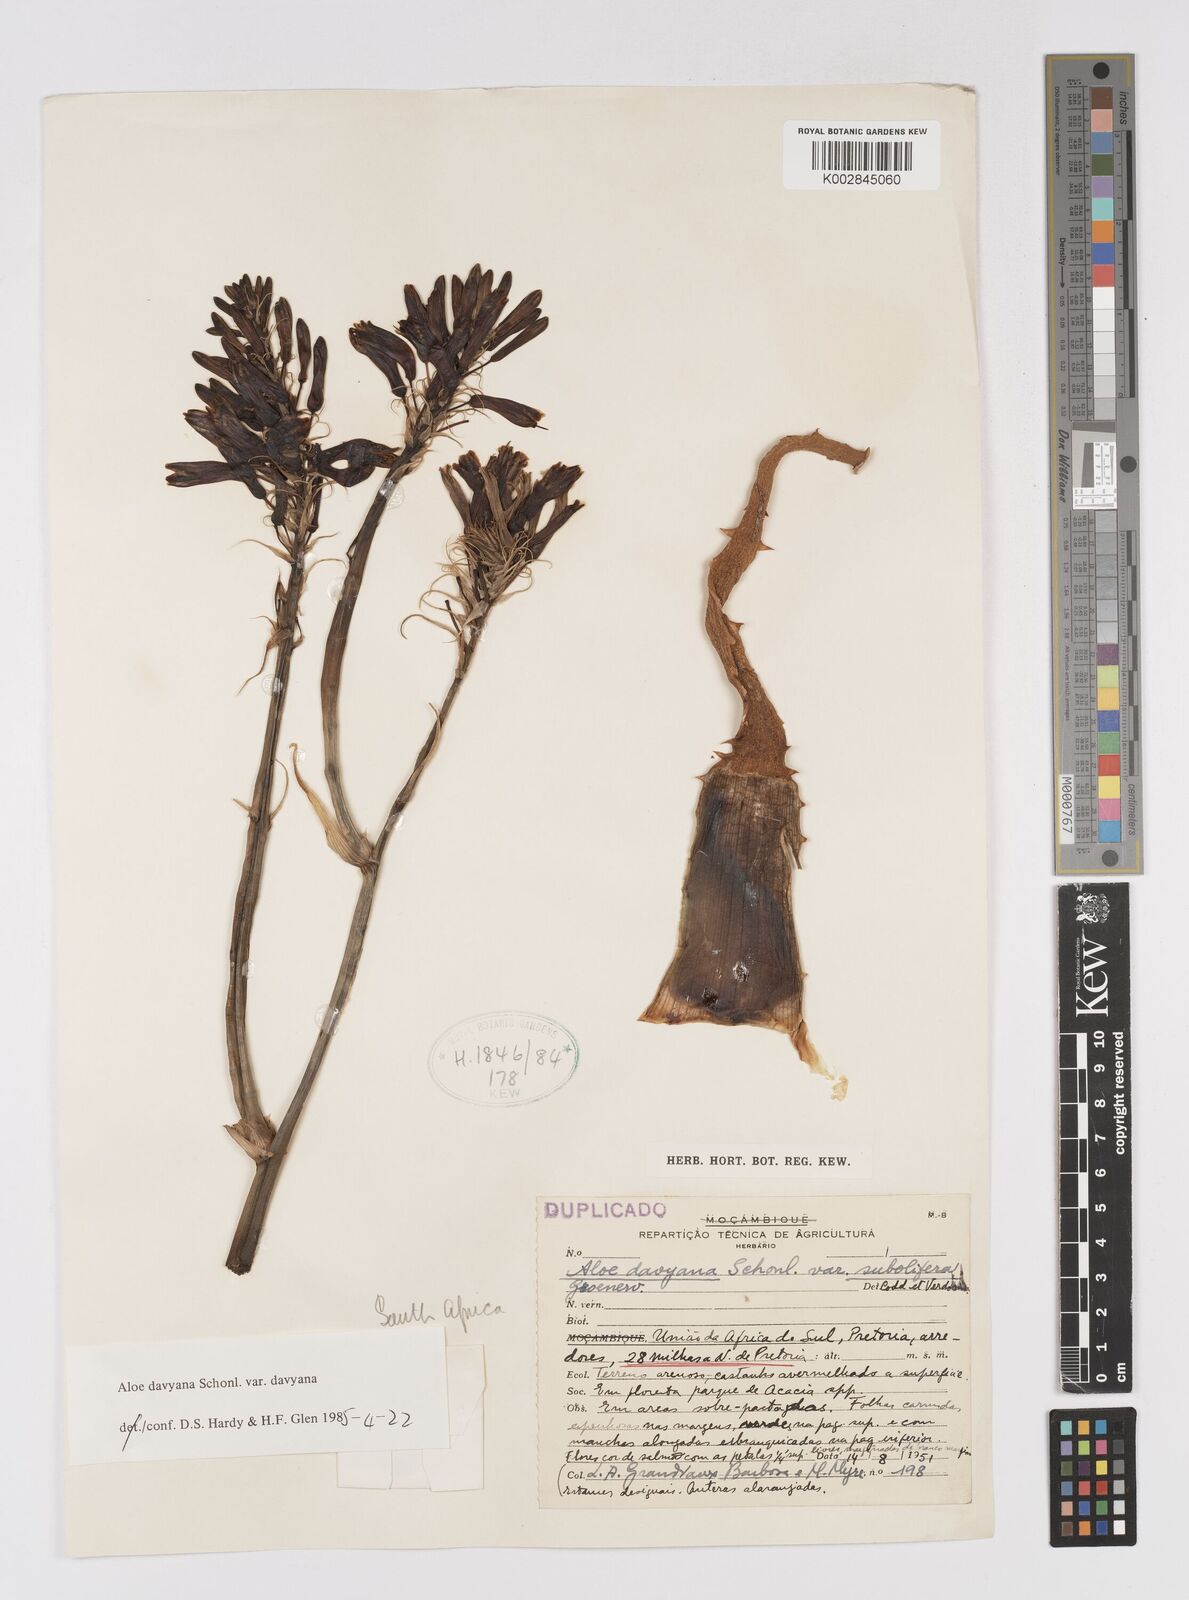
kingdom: Plantae
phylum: Tracheophyta
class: Liliopsida
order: Asparagales
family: Asphodelaceae
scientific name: Asphodelaceae
